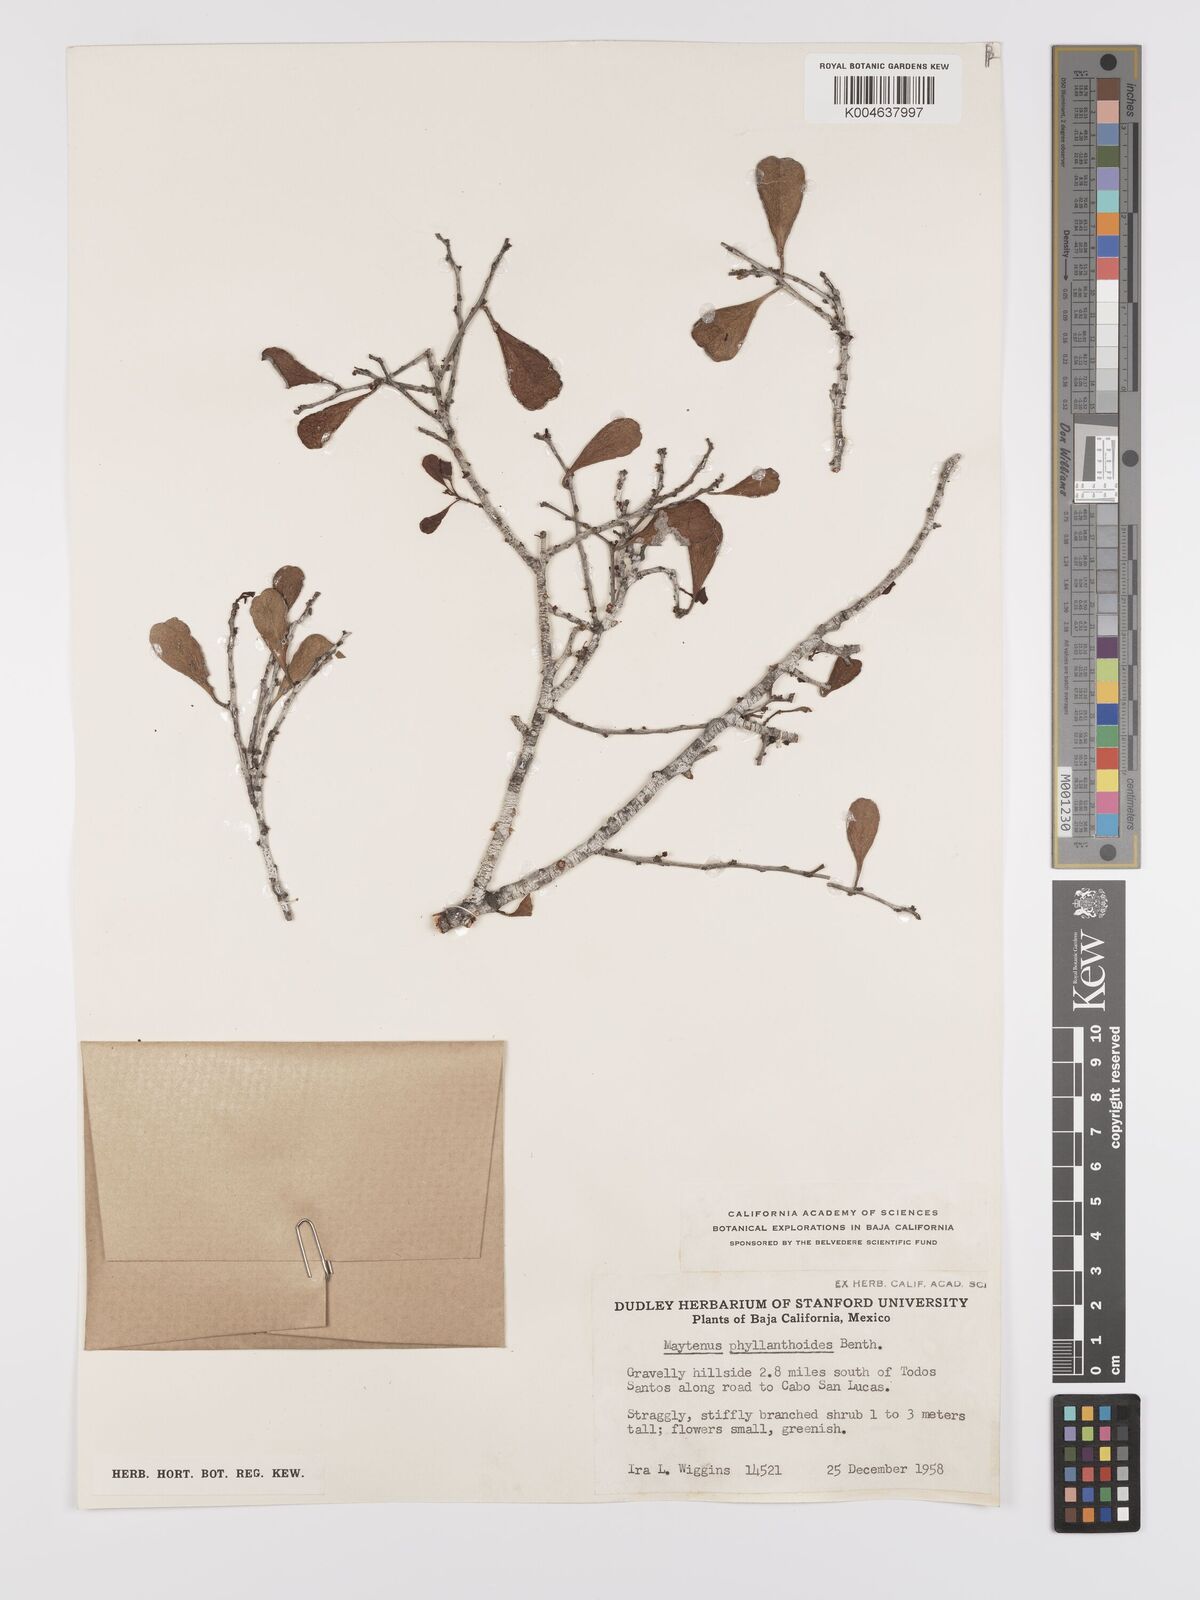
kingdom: Plantae
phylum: Tracheophyta
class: Magnoliopsida
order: Celastrales
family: Celastraceae
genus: Tricerma
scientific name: Tricerma phyllanthoides
